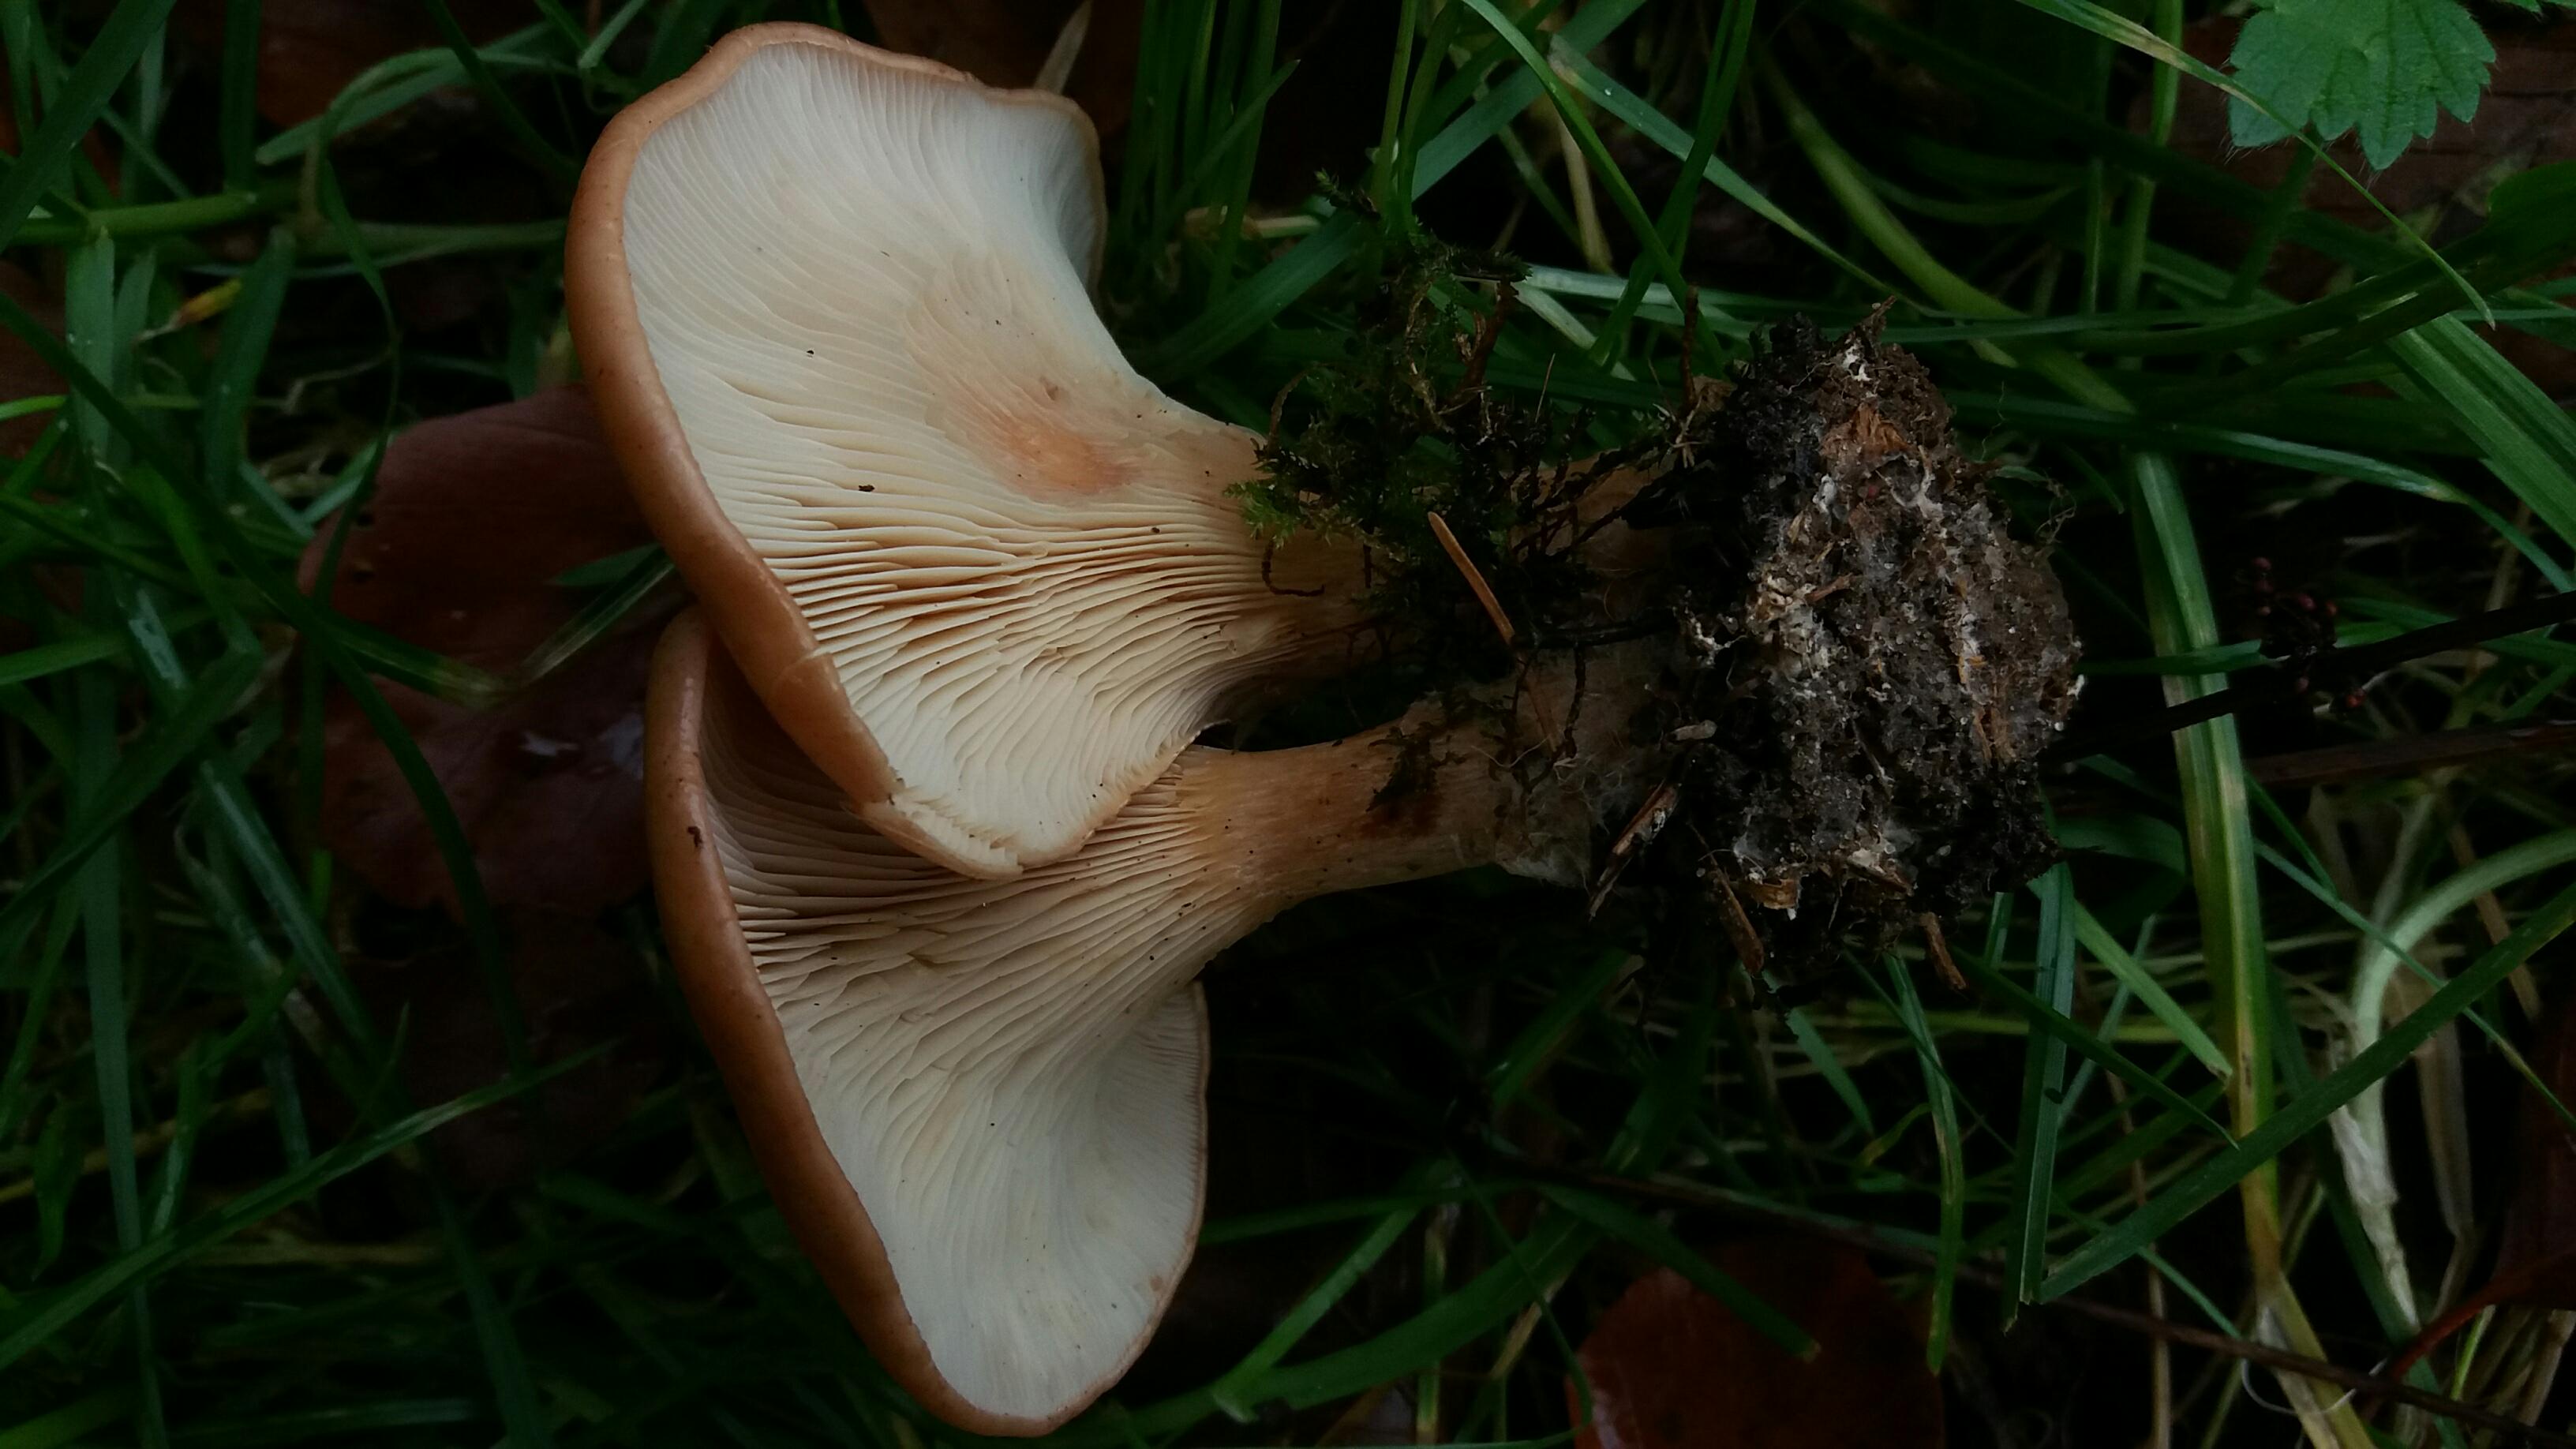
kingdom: Fungi
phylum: Basidiomycota
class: Agaricomycetes
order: Agaricales
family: Tricholomataceae
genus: Paralepista
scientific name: Paralepista flaccida
